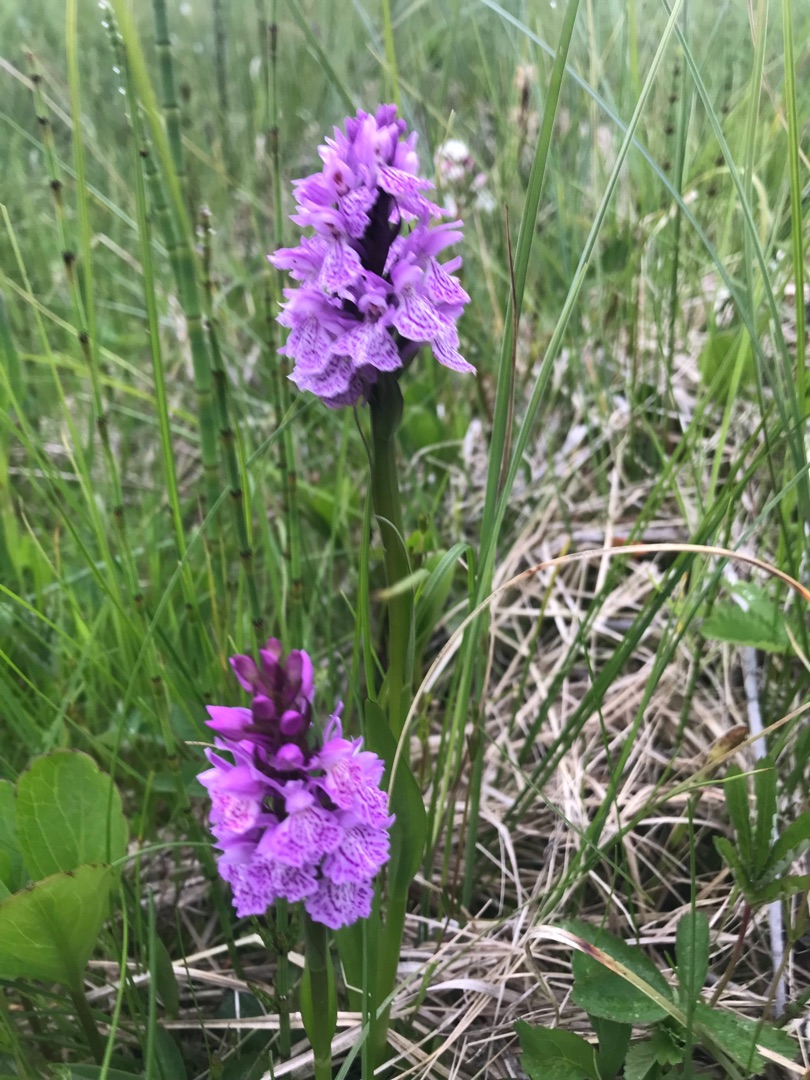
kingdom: Plantae
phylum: Tracheophyta
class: Liliopsida
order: Asparagales
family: Orchidaceae
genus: Dactylorhiza
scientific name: Dactylorhiza maculata
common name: Plettet gøgeurt
